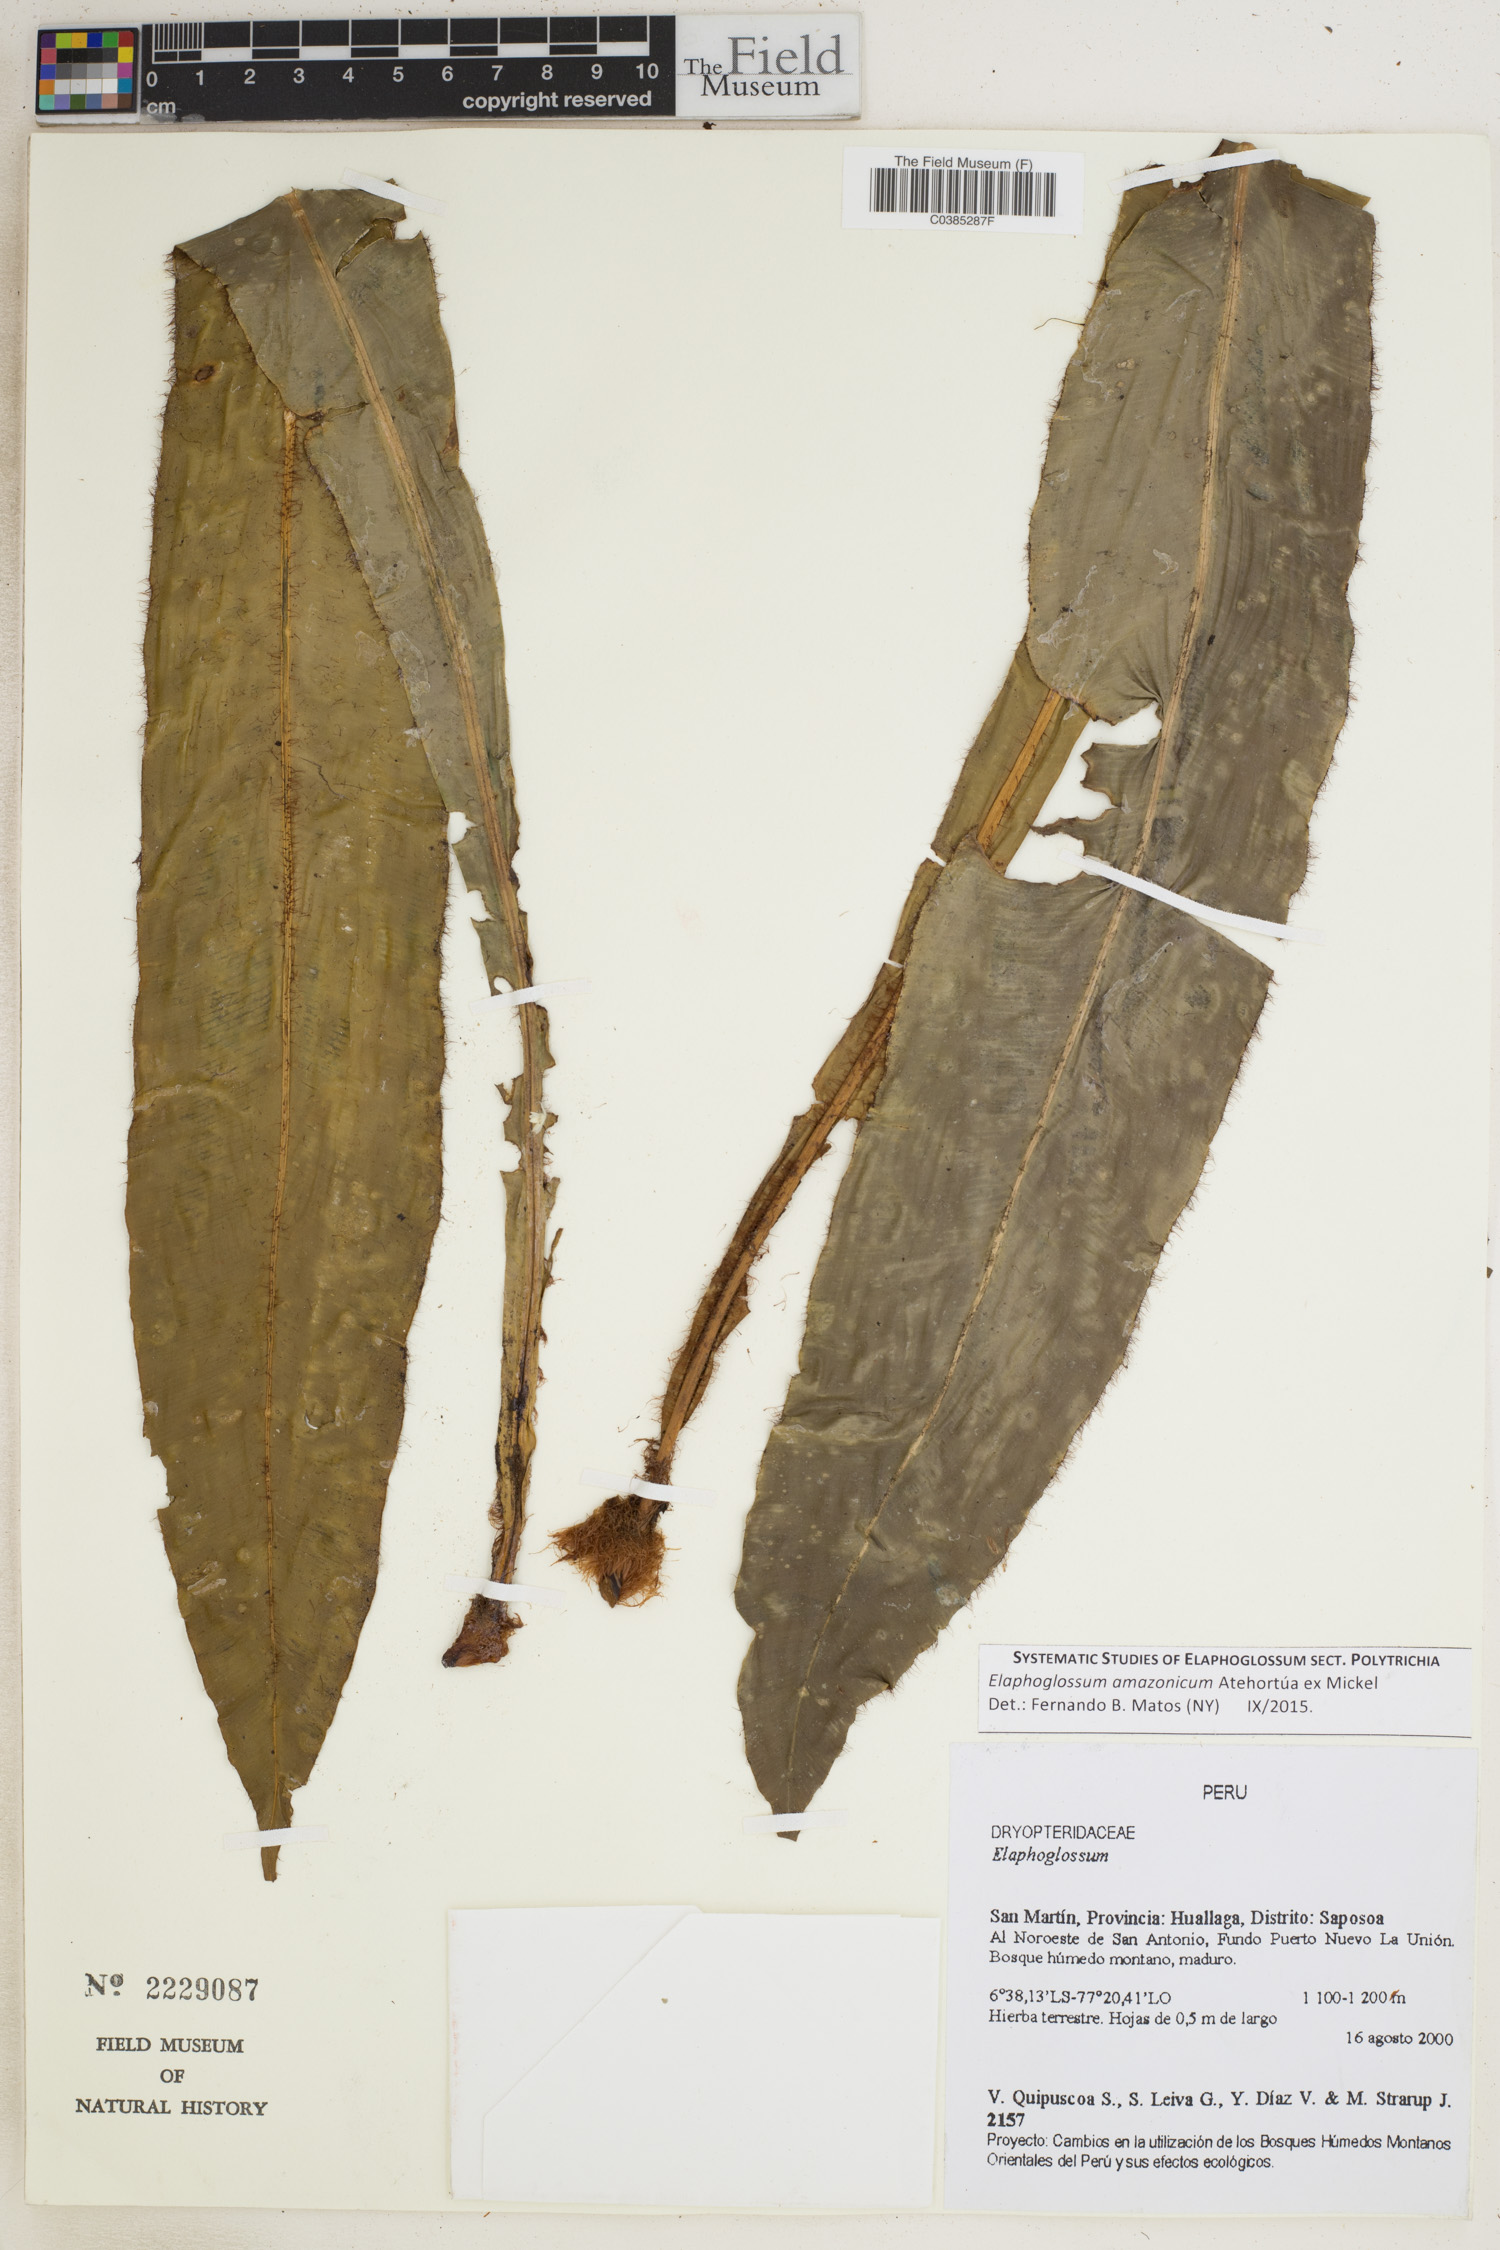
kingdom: Plantae
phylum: Tracheophyta
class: Polypodiopsida
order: Polypodiales
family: Dryopteridaceae
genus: Elaphoglossum
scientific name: Elaphoglossum amazonicum
